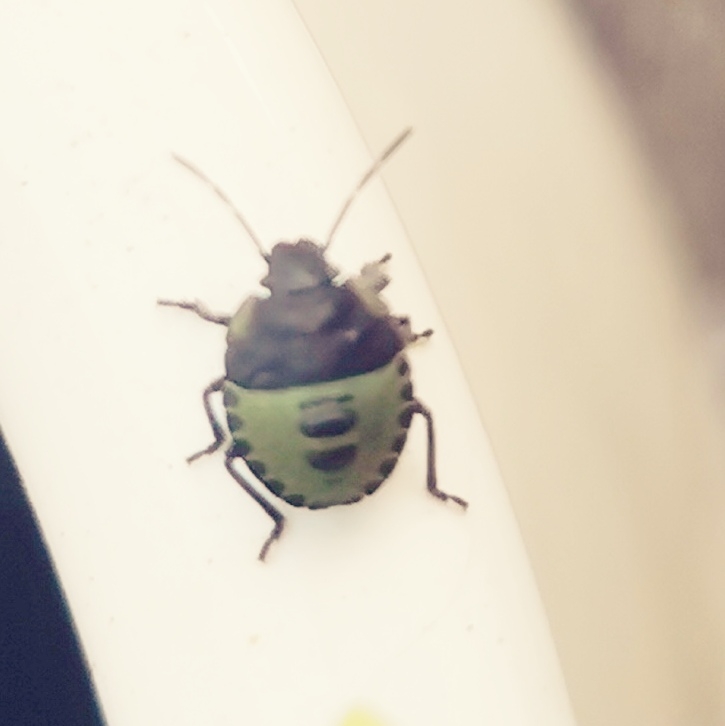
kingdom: Animalia
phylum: Arthropoda
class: Insecta
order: Hemiptera
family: Pentatomidae
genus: Palomena
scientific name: Palomena prasina
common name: Grøn bredtæge
